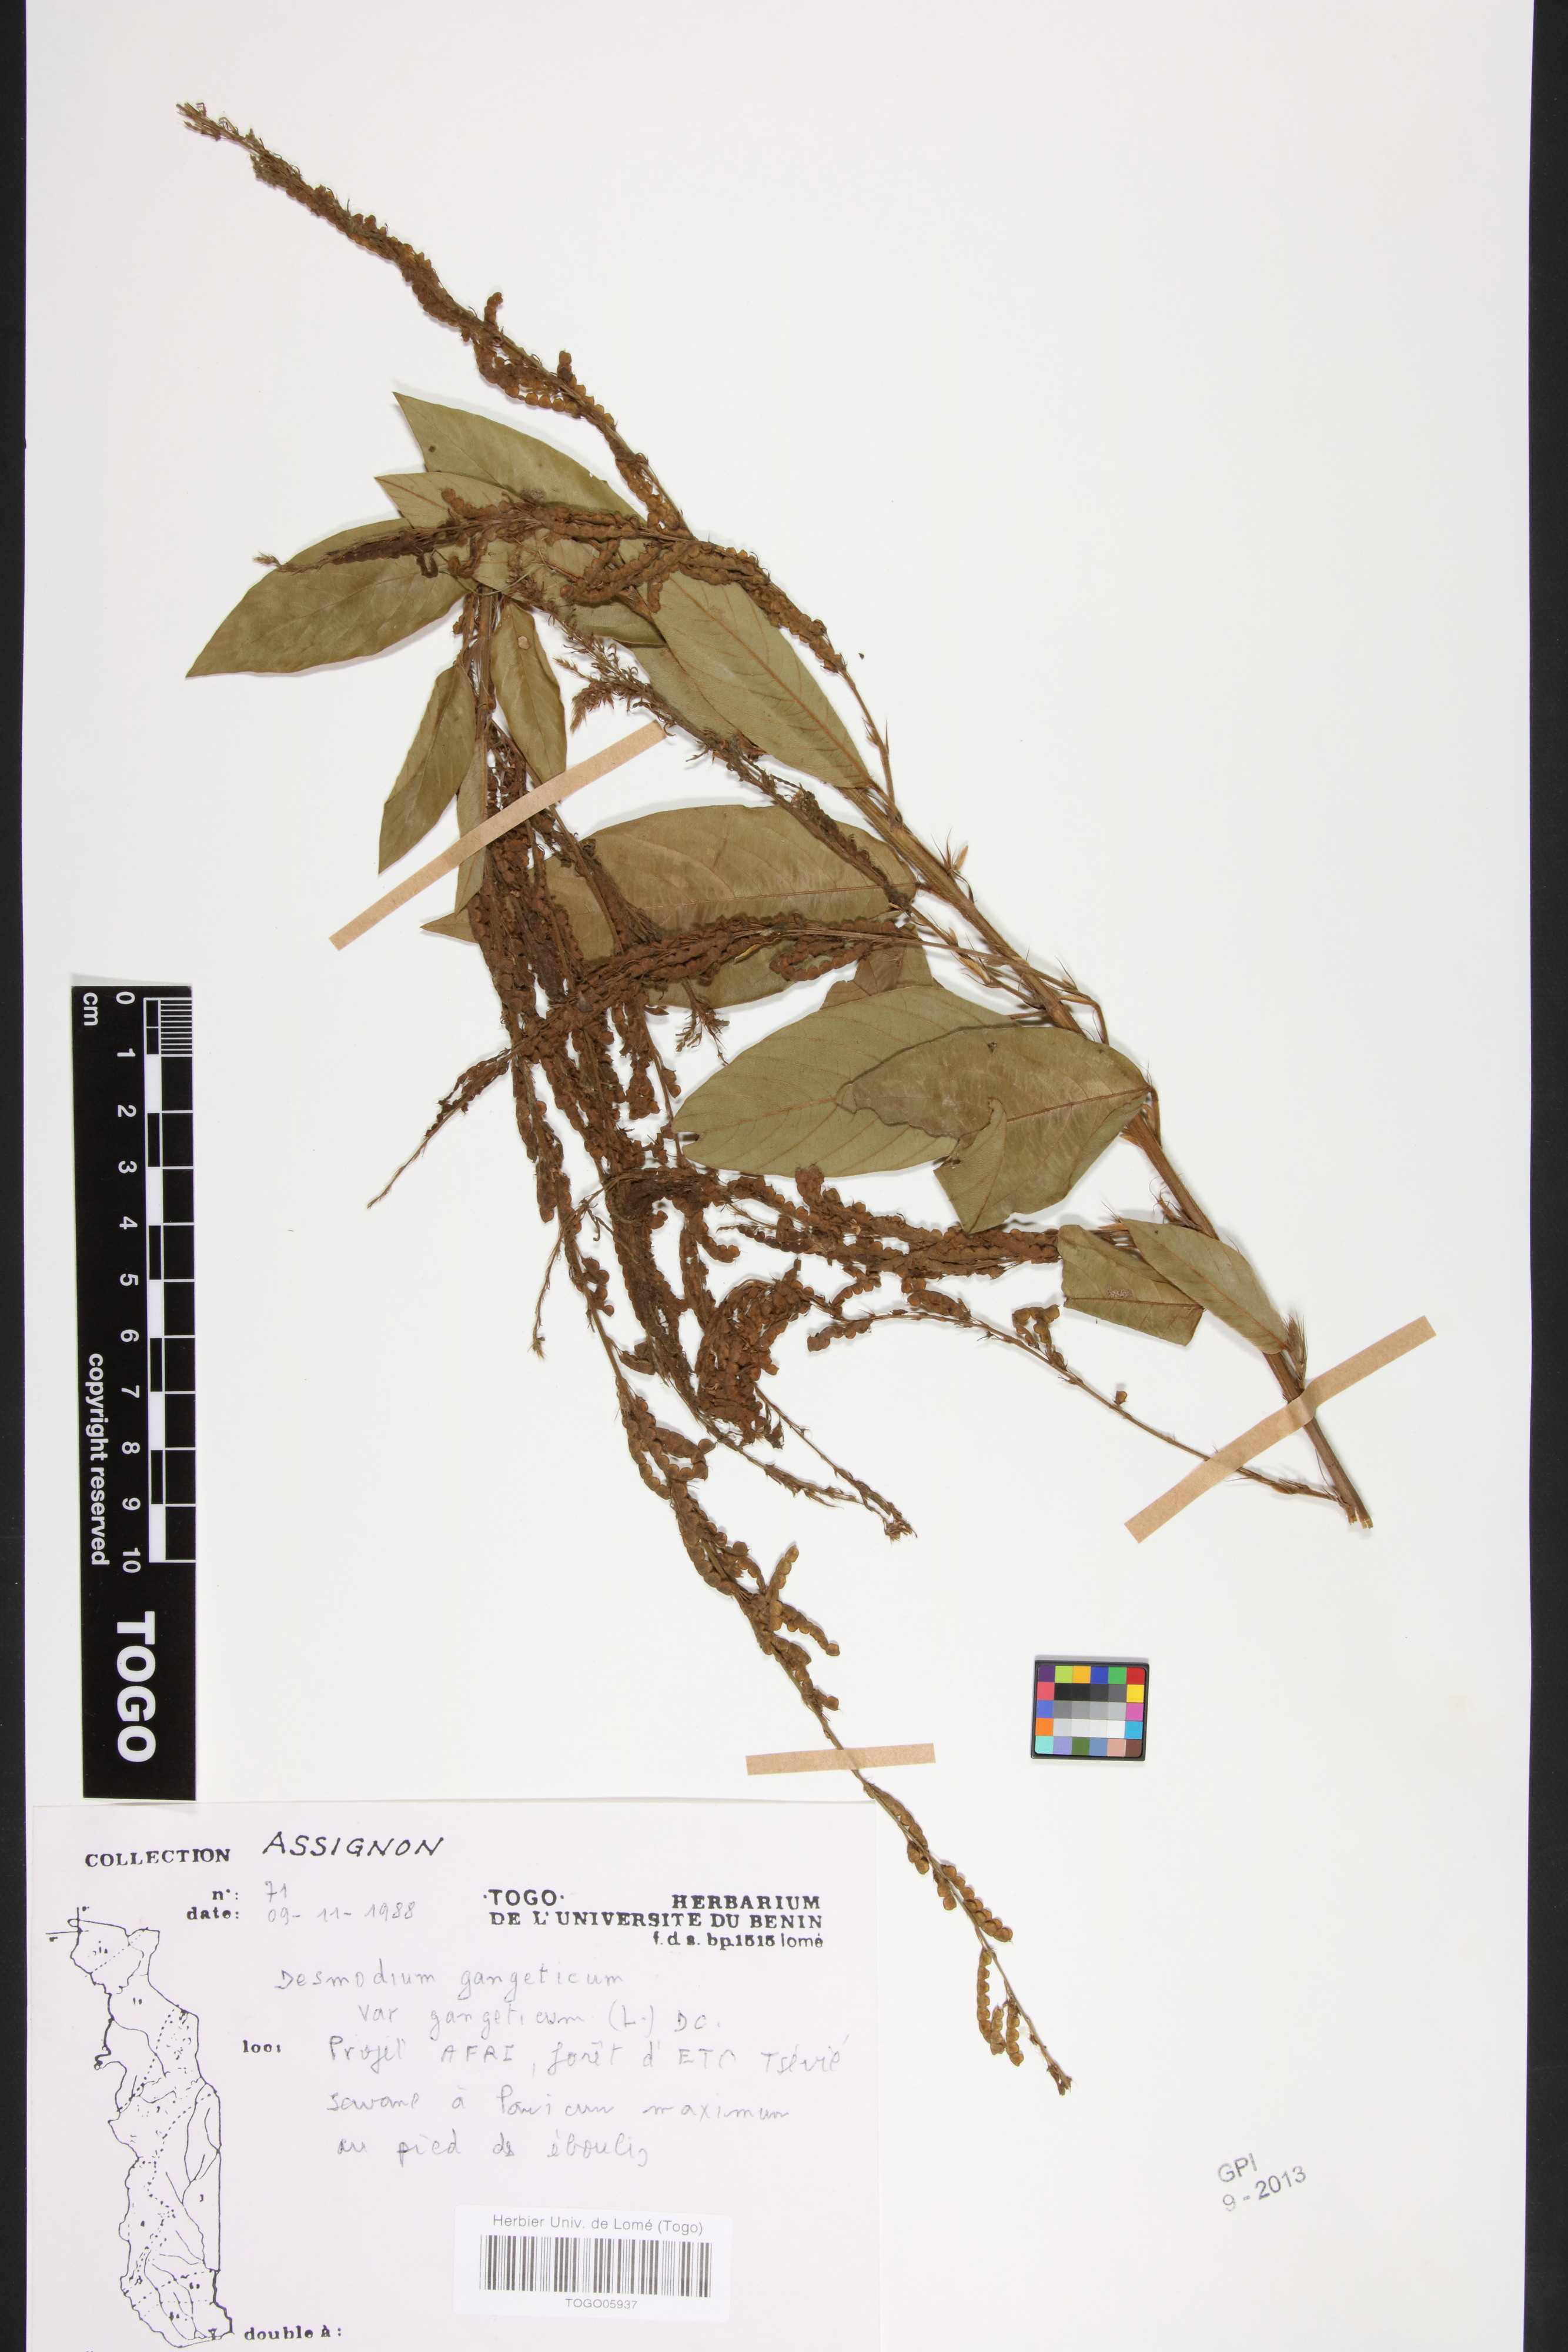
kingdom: Plantae
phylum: Tracheophyta
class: Magnoliopsida
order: Fabales
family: Fabaceae
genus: Pleurolobus
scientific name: Pleurolobus gangeticus
